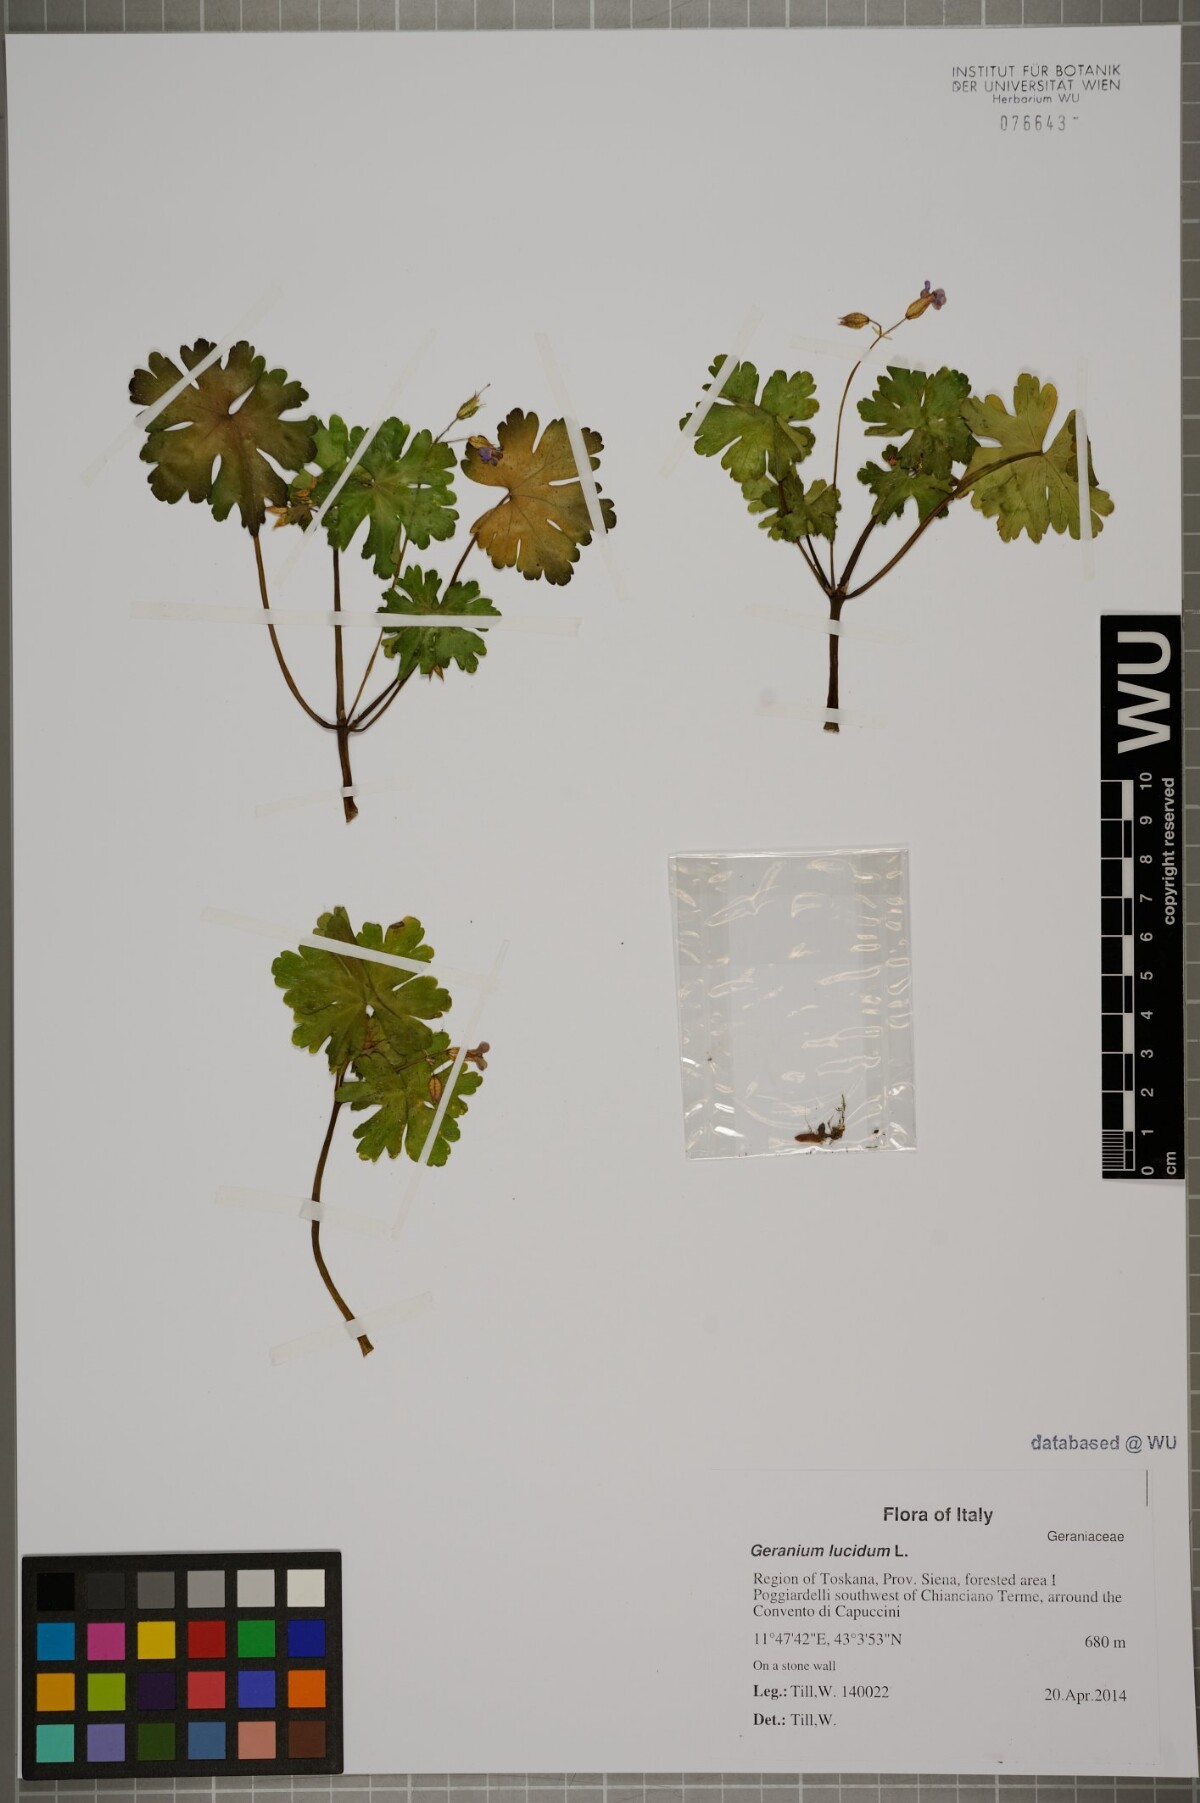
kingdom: Plantae
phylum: Tracheophyta
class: Magnoliopsida
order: Geraniales
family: Geraniaceae
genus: Geranium
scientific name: Geranium lucidum
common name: Shining crane's-bill
